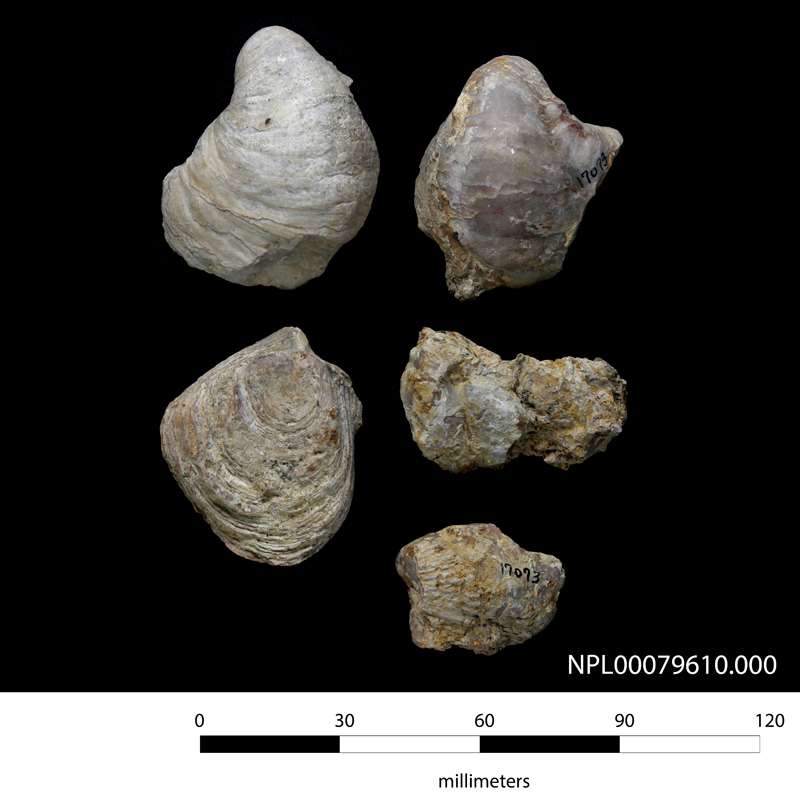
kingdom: Animalia
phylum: Mollusca
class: Bivalvia
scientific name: Bivalvia
